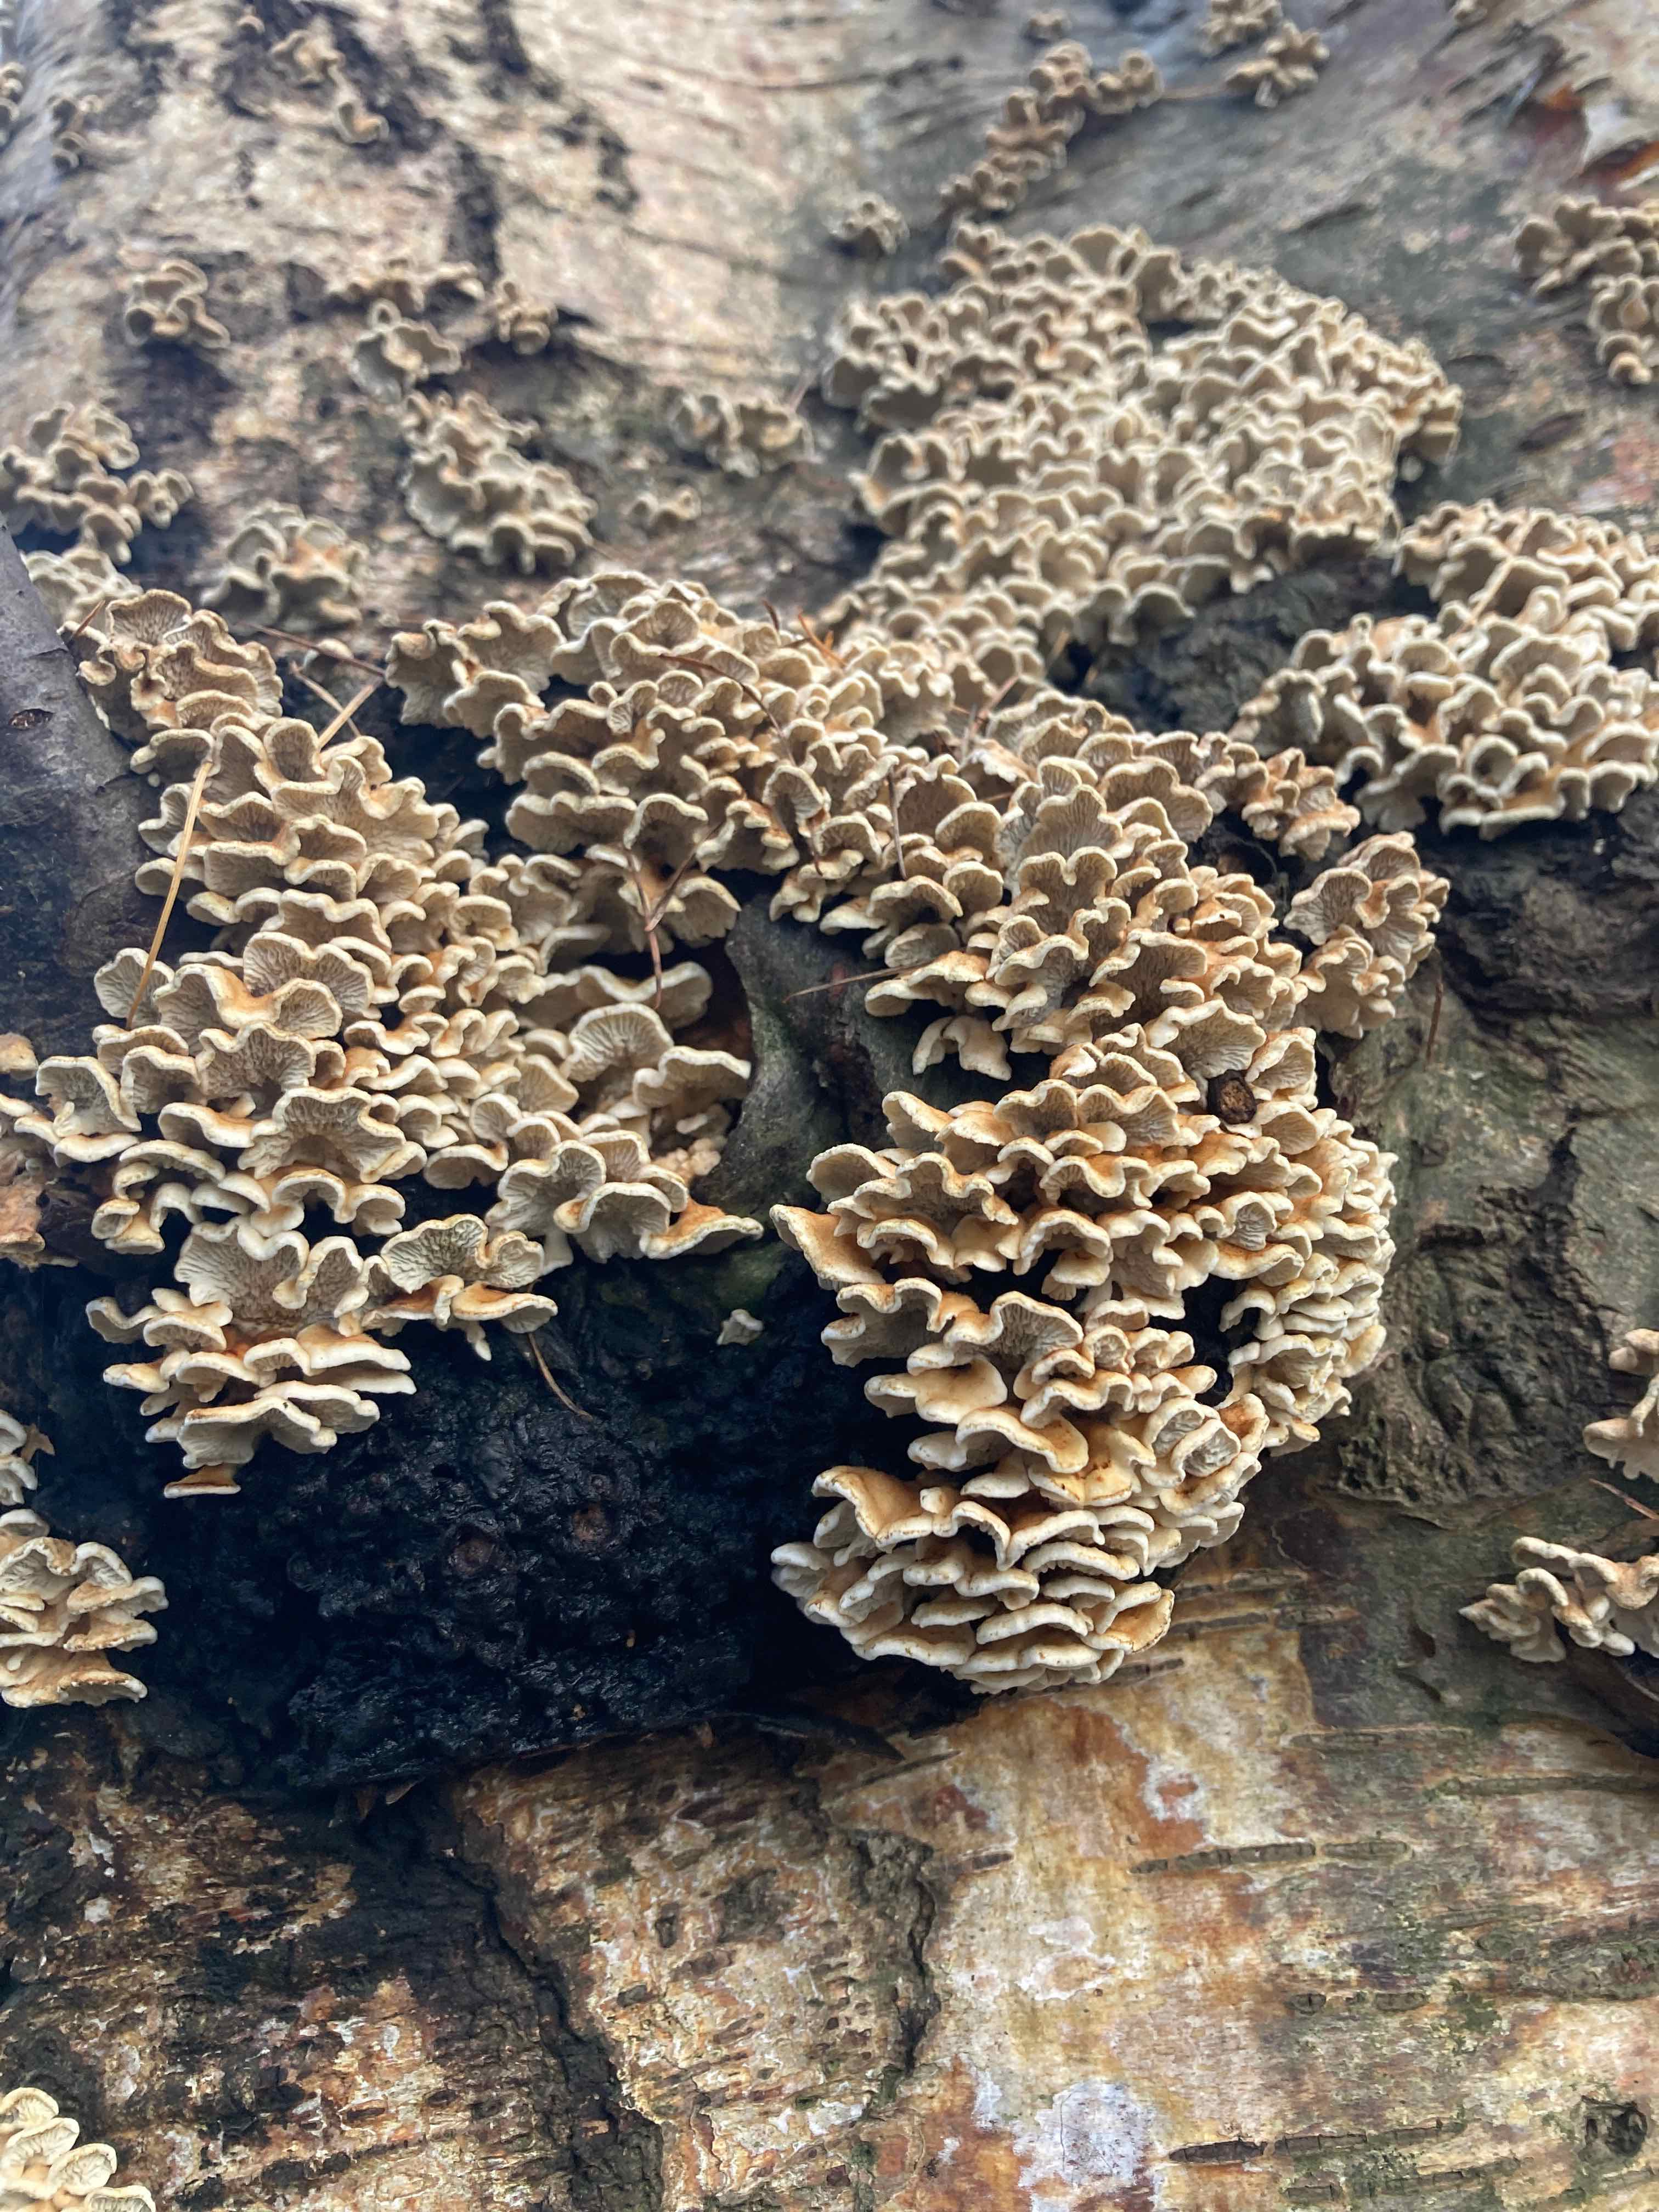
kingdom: Fungi
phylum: Basidiomycota
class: Agaricomycetes
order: Amylocorticiales
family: Amylocorticiaceae
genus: Plicaturopsis
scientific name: Plicaturopsis crispa
